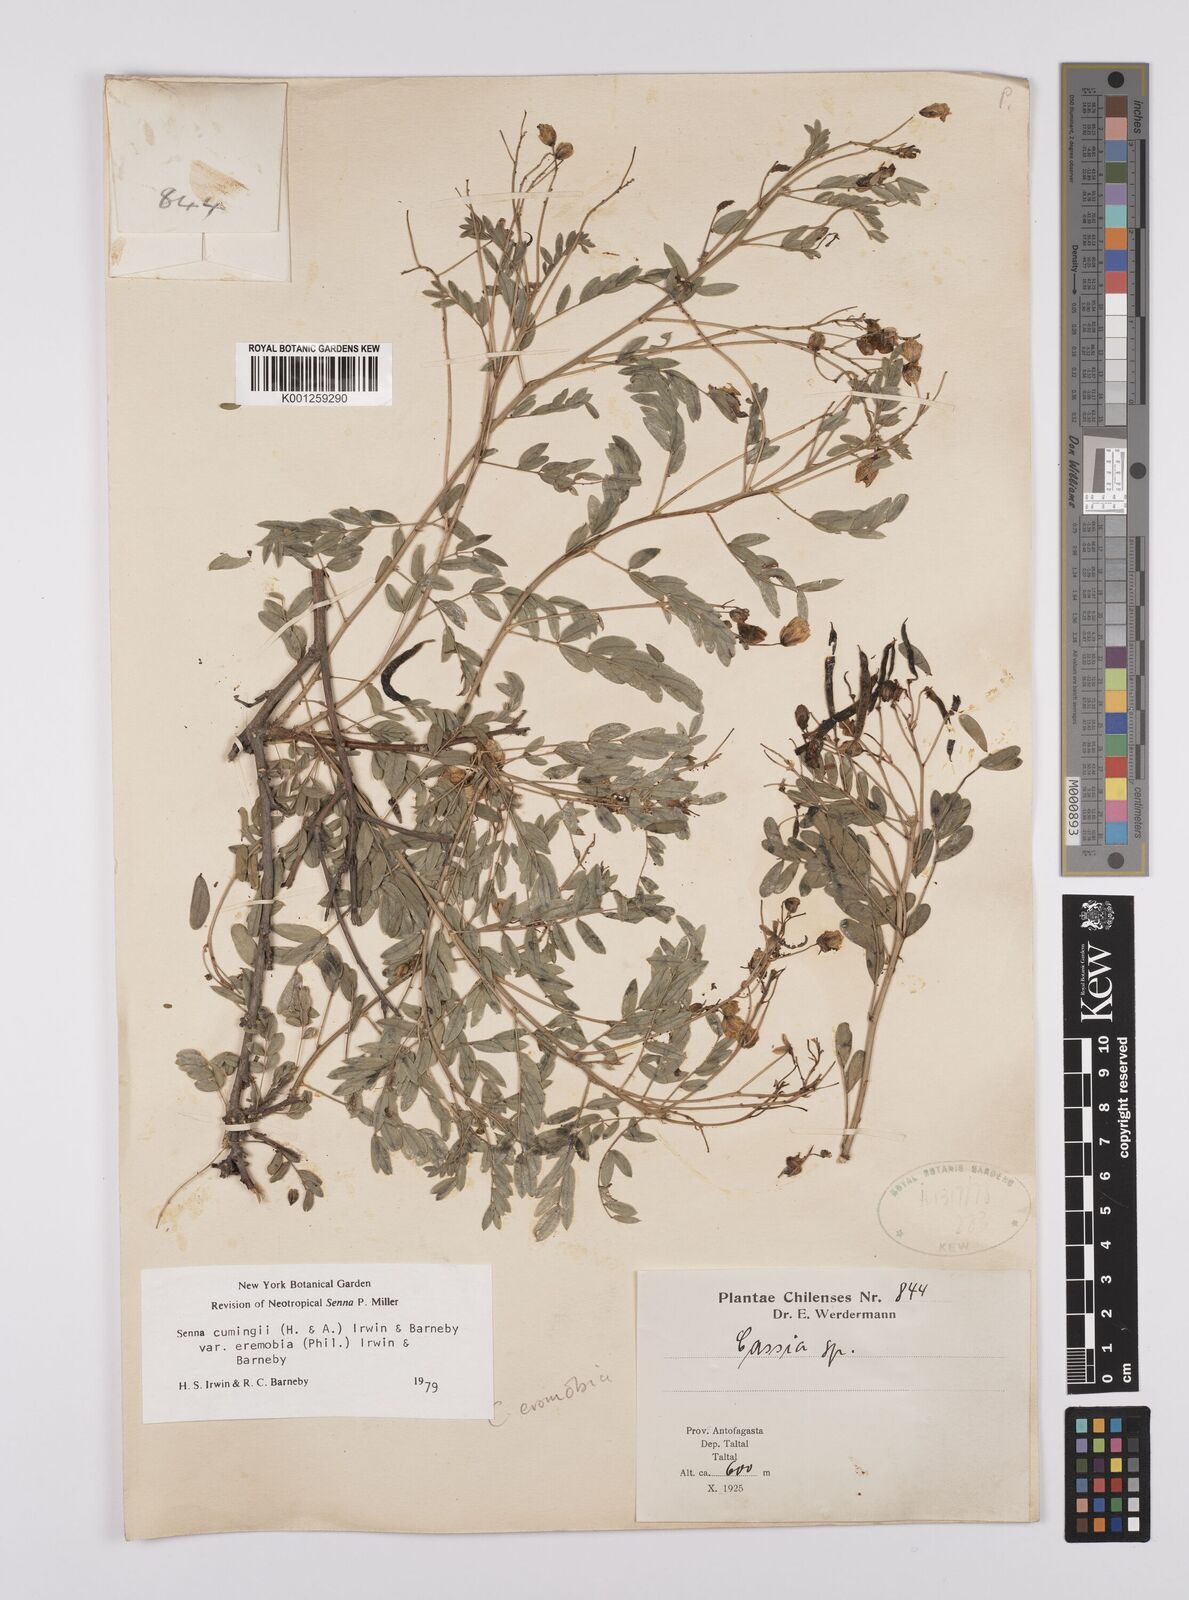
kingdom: Plantae
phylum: Tracheophyta
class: Magnoliopsida
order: Fabales
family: Fabaceae
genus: Senna
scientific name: Senna cumingii
